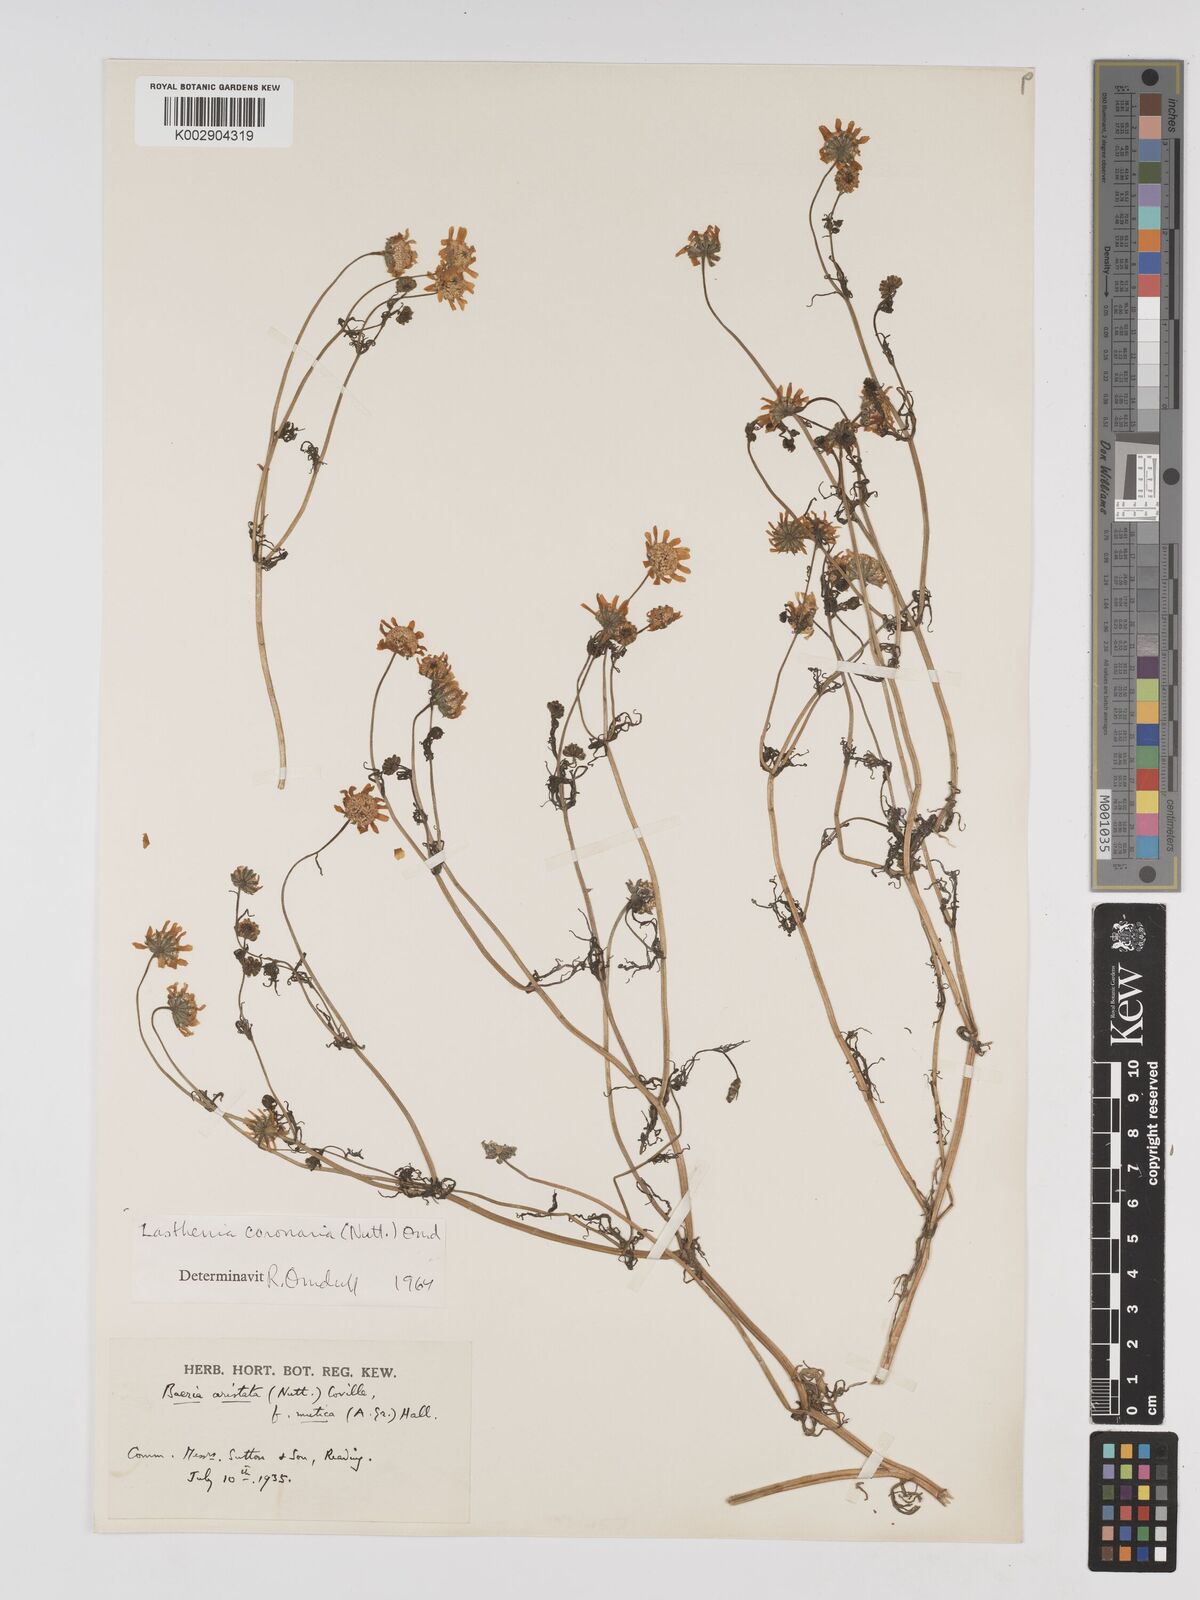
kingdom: Plantae
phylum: Tracheophyta
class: Magnoliopsida
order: Asterales
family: Asteraceae
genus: Lasthenia
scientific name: Lasthenia coronaria
